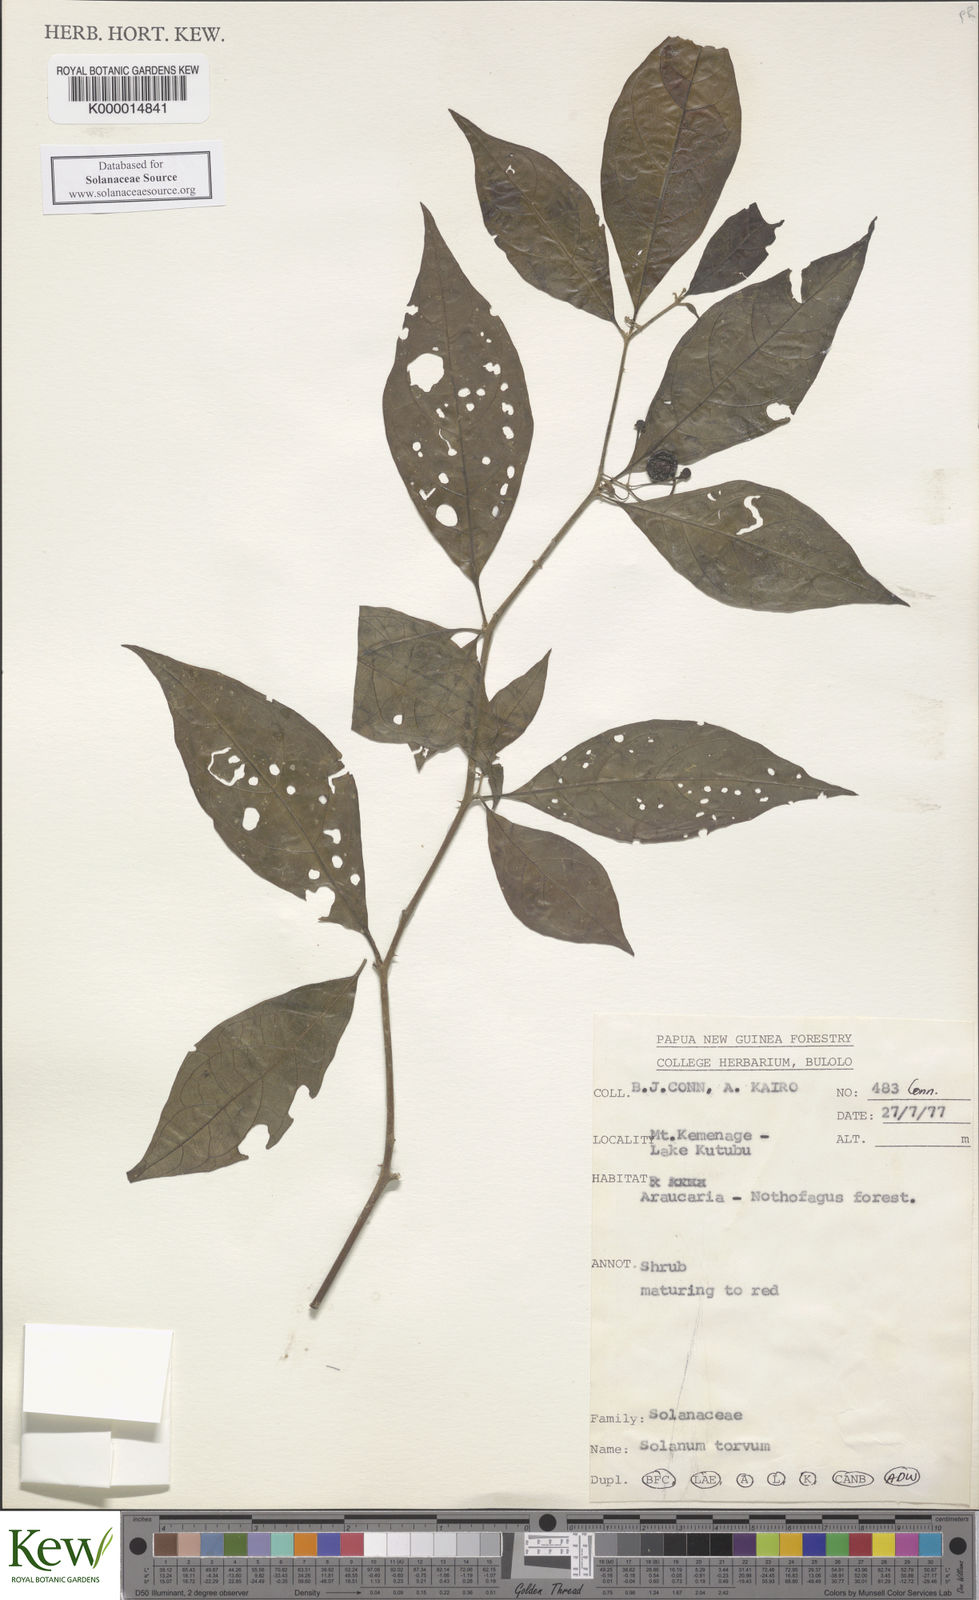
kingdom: Plantae
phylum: Tracheophyta
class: Magnoliopsida
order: Solanales
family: Solanaceae
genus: Solanum
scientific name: Solanum
